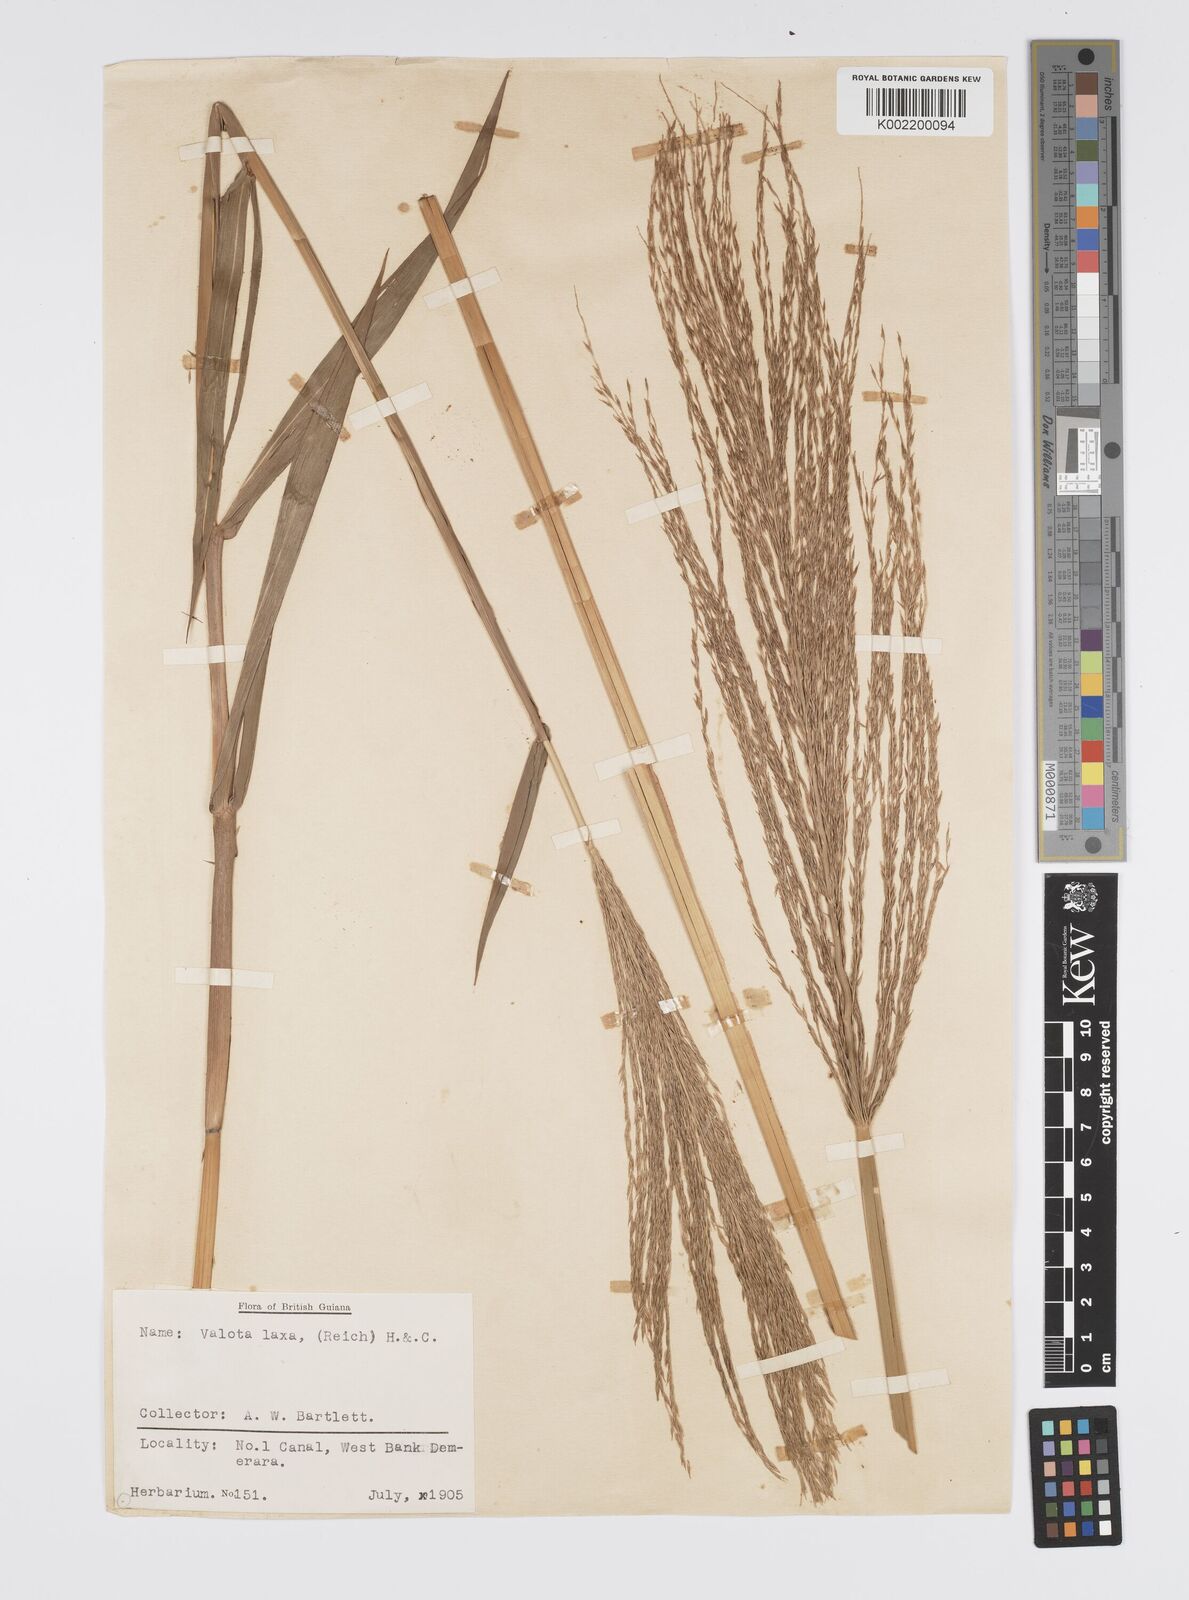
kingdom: Plantae
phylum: Tracheophyta
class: Liliopsida
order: Poales
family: Poaceae
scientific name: Poaceae
